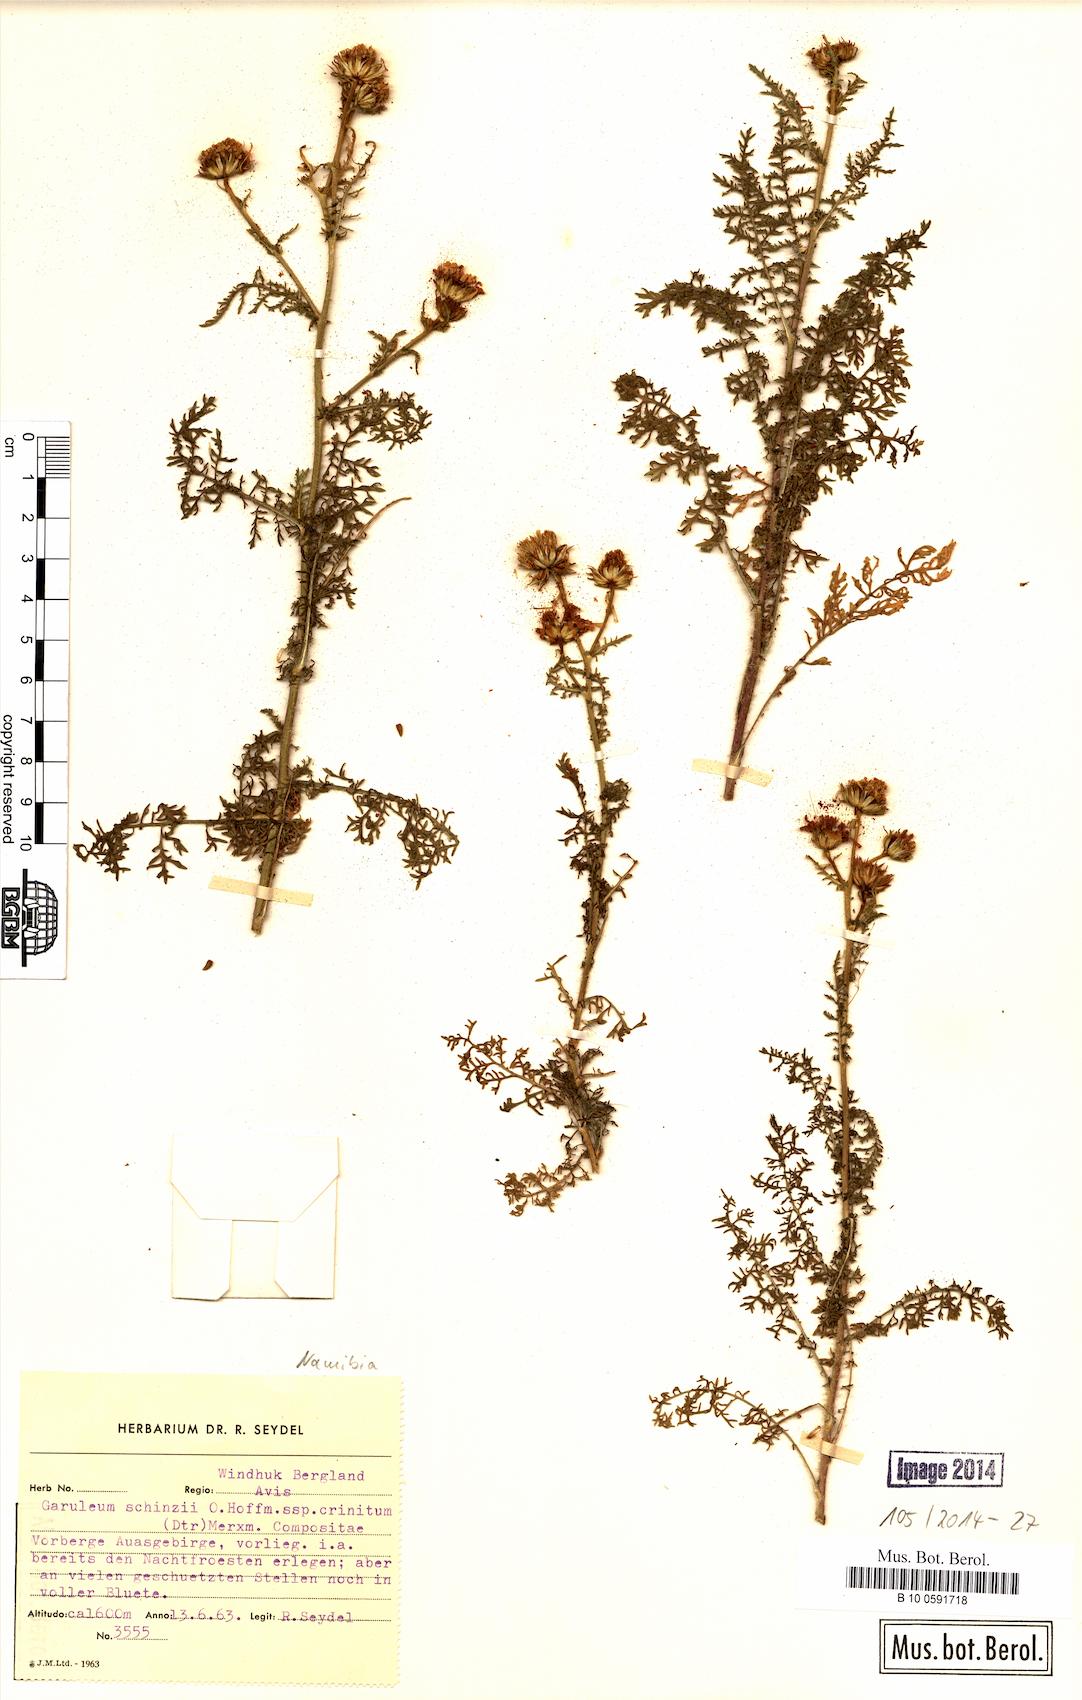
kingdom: Plantae
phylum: Tracheophyta
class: Magnoliopsida
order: Asterales
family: Asteraceae
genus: Garuleum
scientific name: Garuleum schinzii
